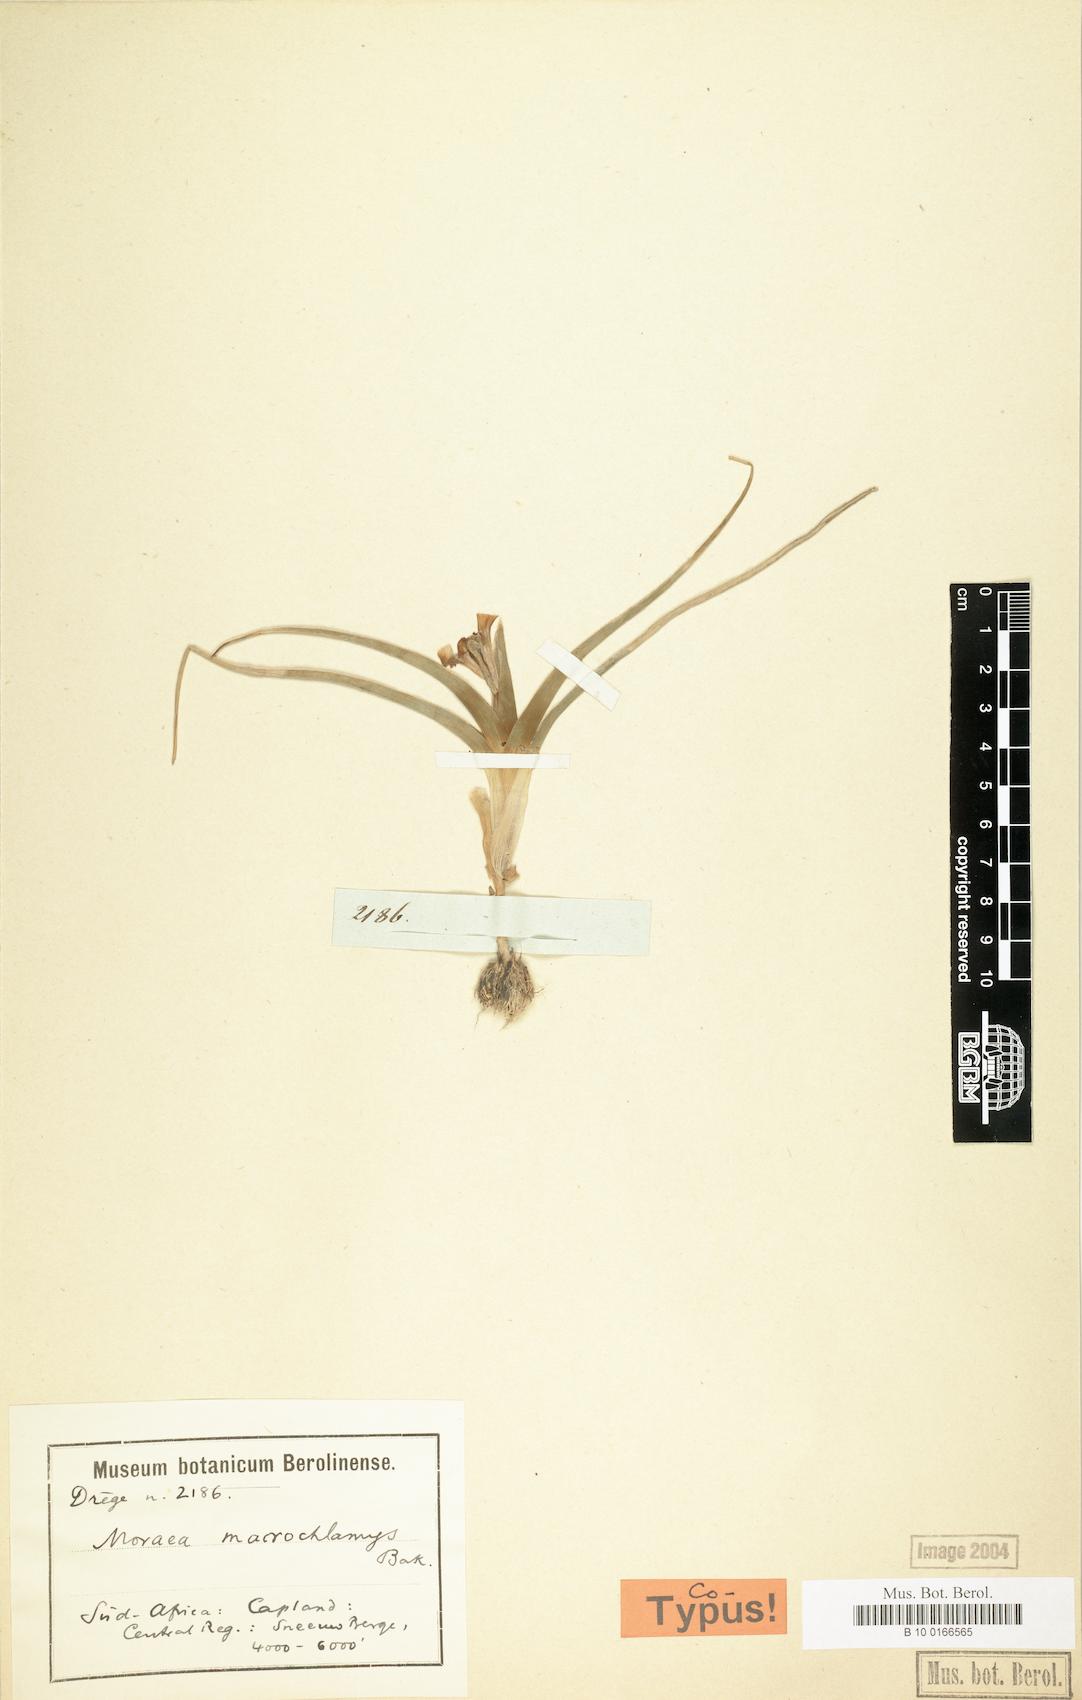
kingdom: Plantae
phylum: Tracheophyta
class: Liliopsida
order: Asparagales
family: Iridaceae
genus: Moraea
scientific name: Moraea ciliata
